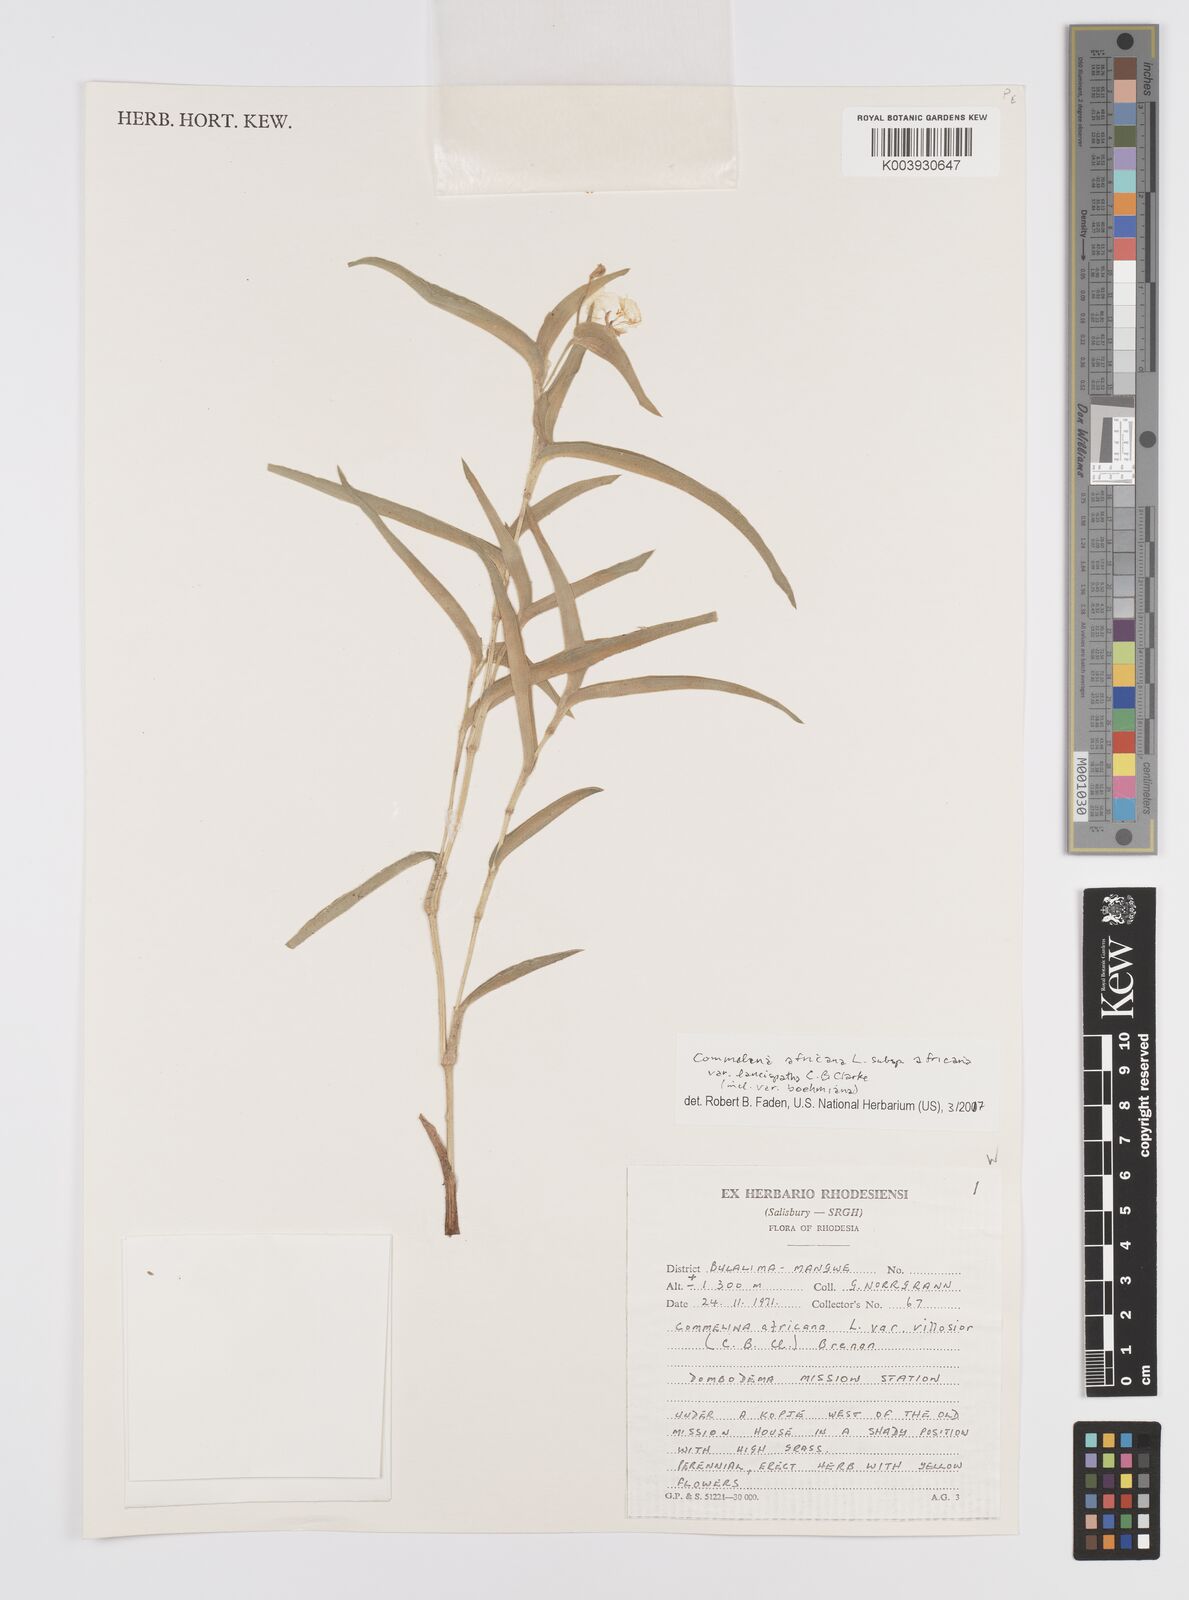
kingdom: Plantae
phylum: Tracheophyta
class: Liliopsida
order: Commelinales
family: Commelinaceae
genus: Commelina
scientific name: Commelina africana
